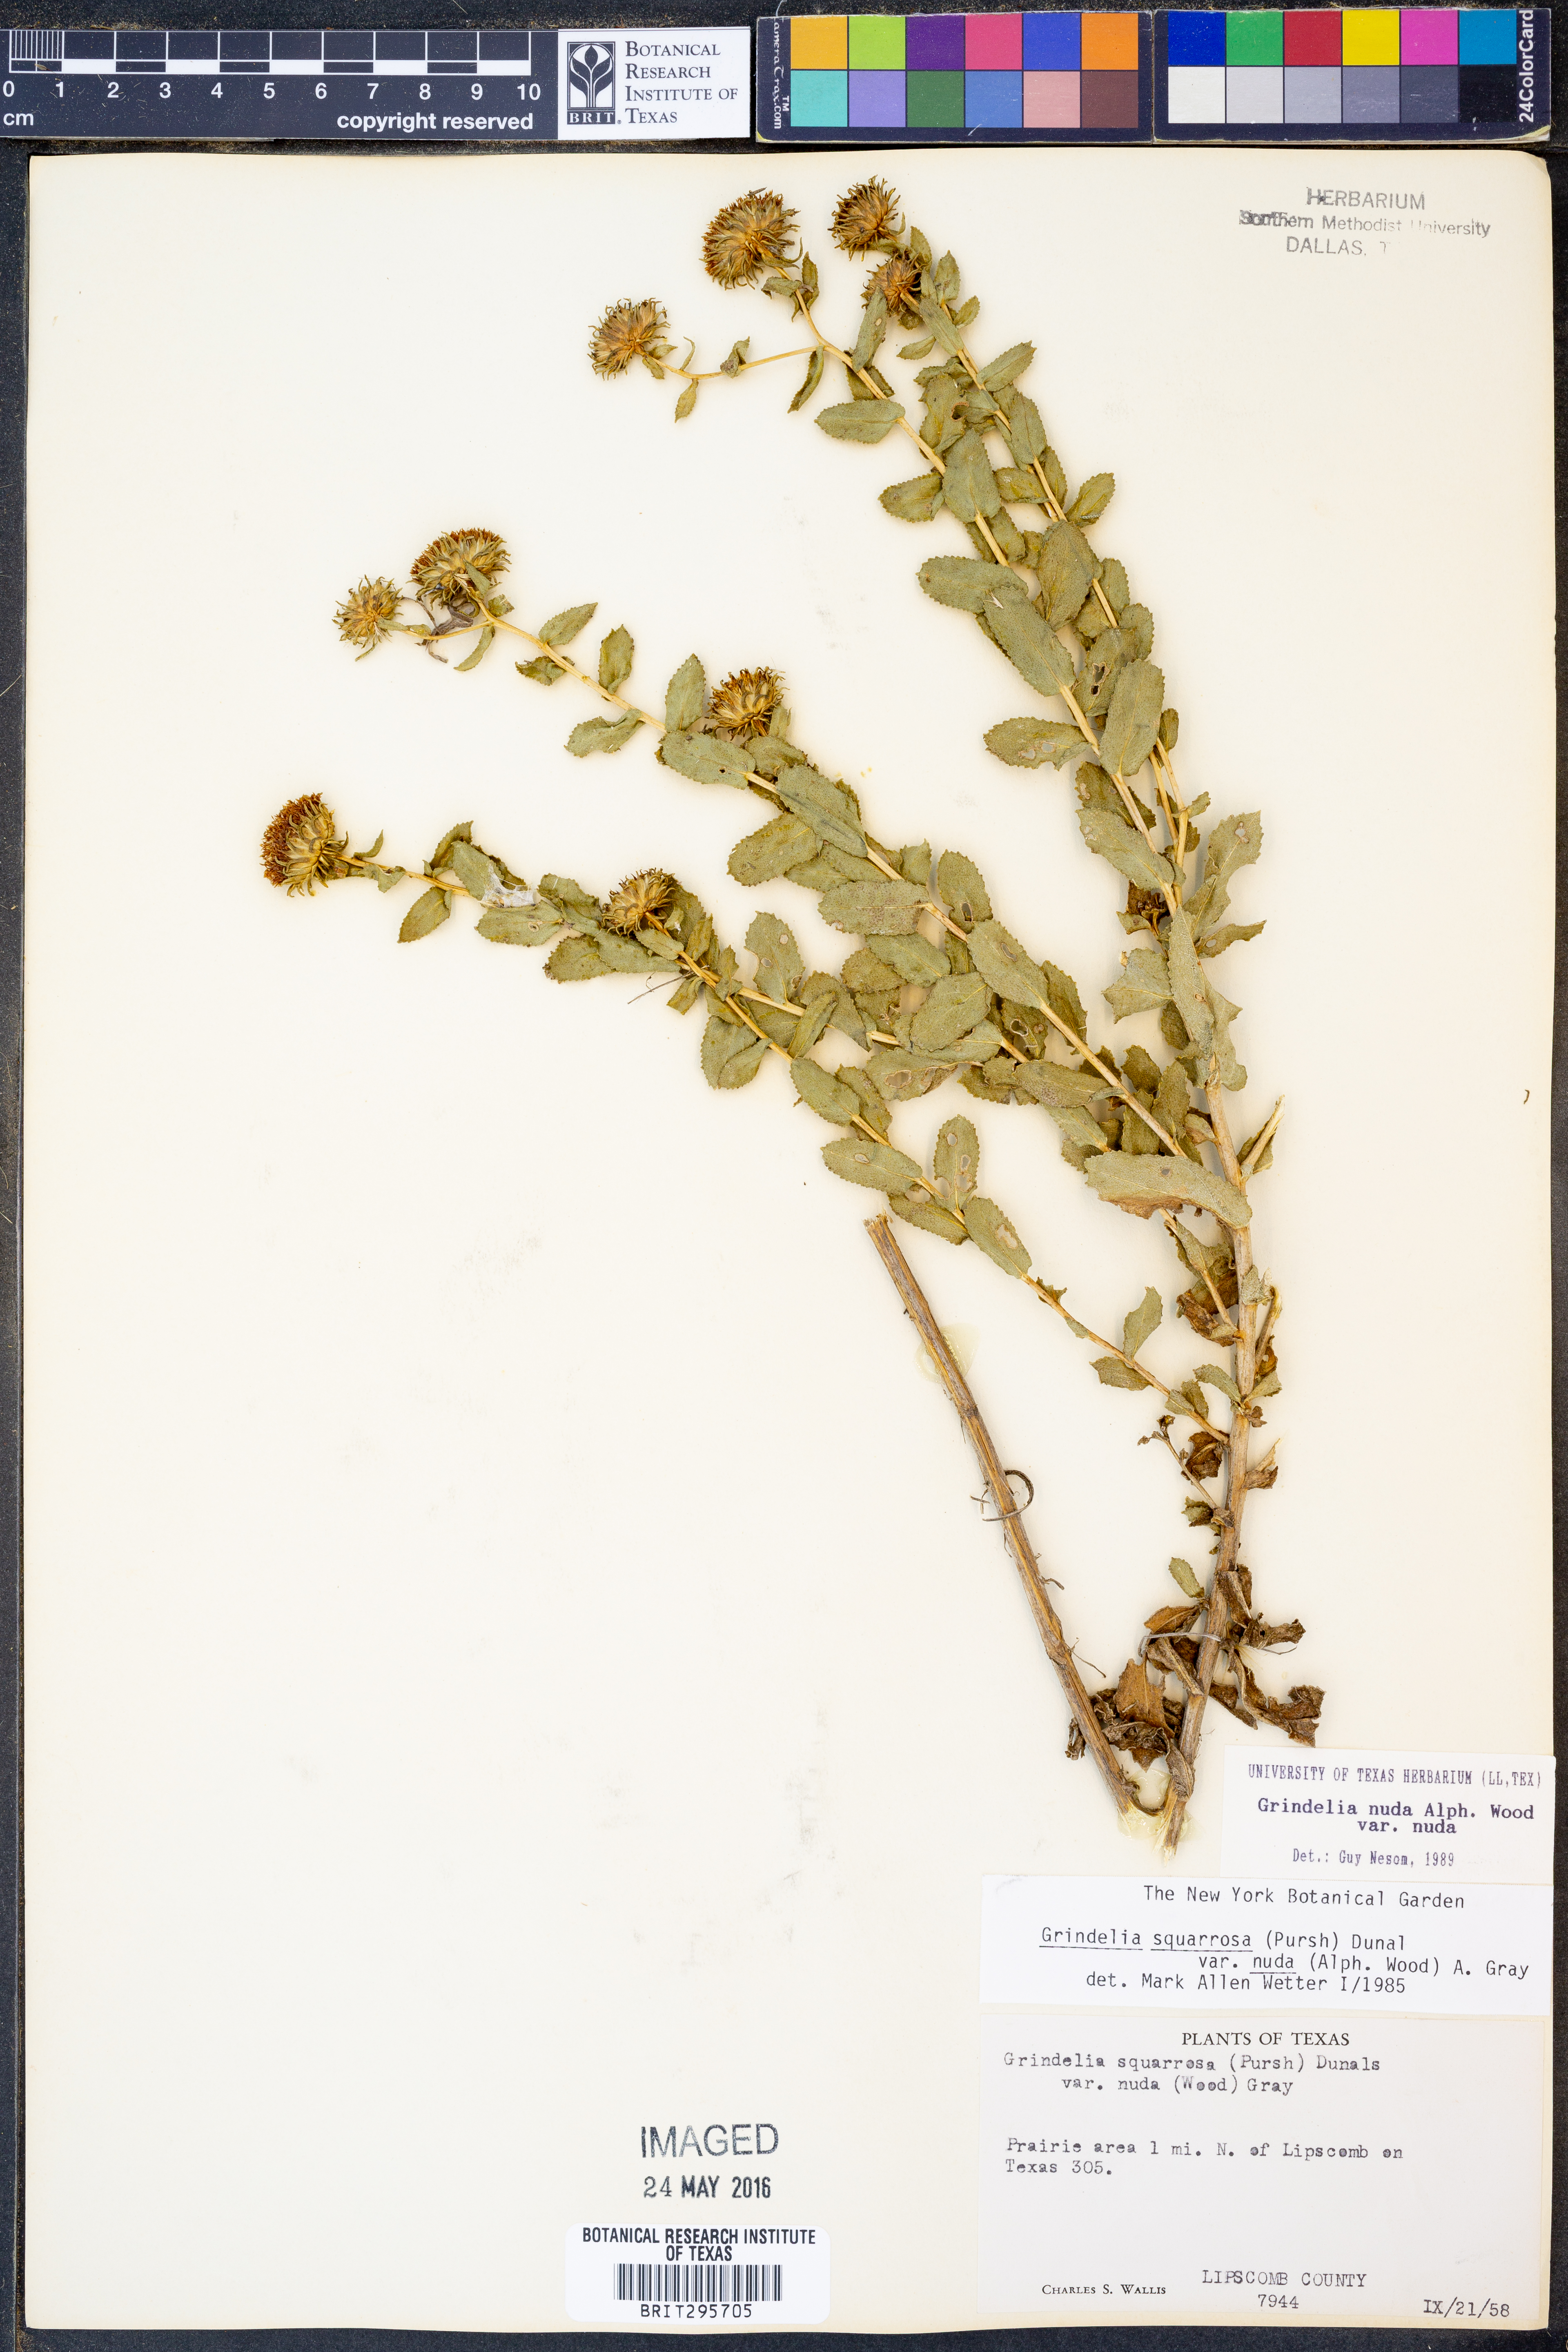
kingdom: Plantae
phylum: Tracheophyta
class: Magnoliopsida
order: Asterales
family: Asteraceae
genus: Grindelia
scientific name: Grindelia nuda
